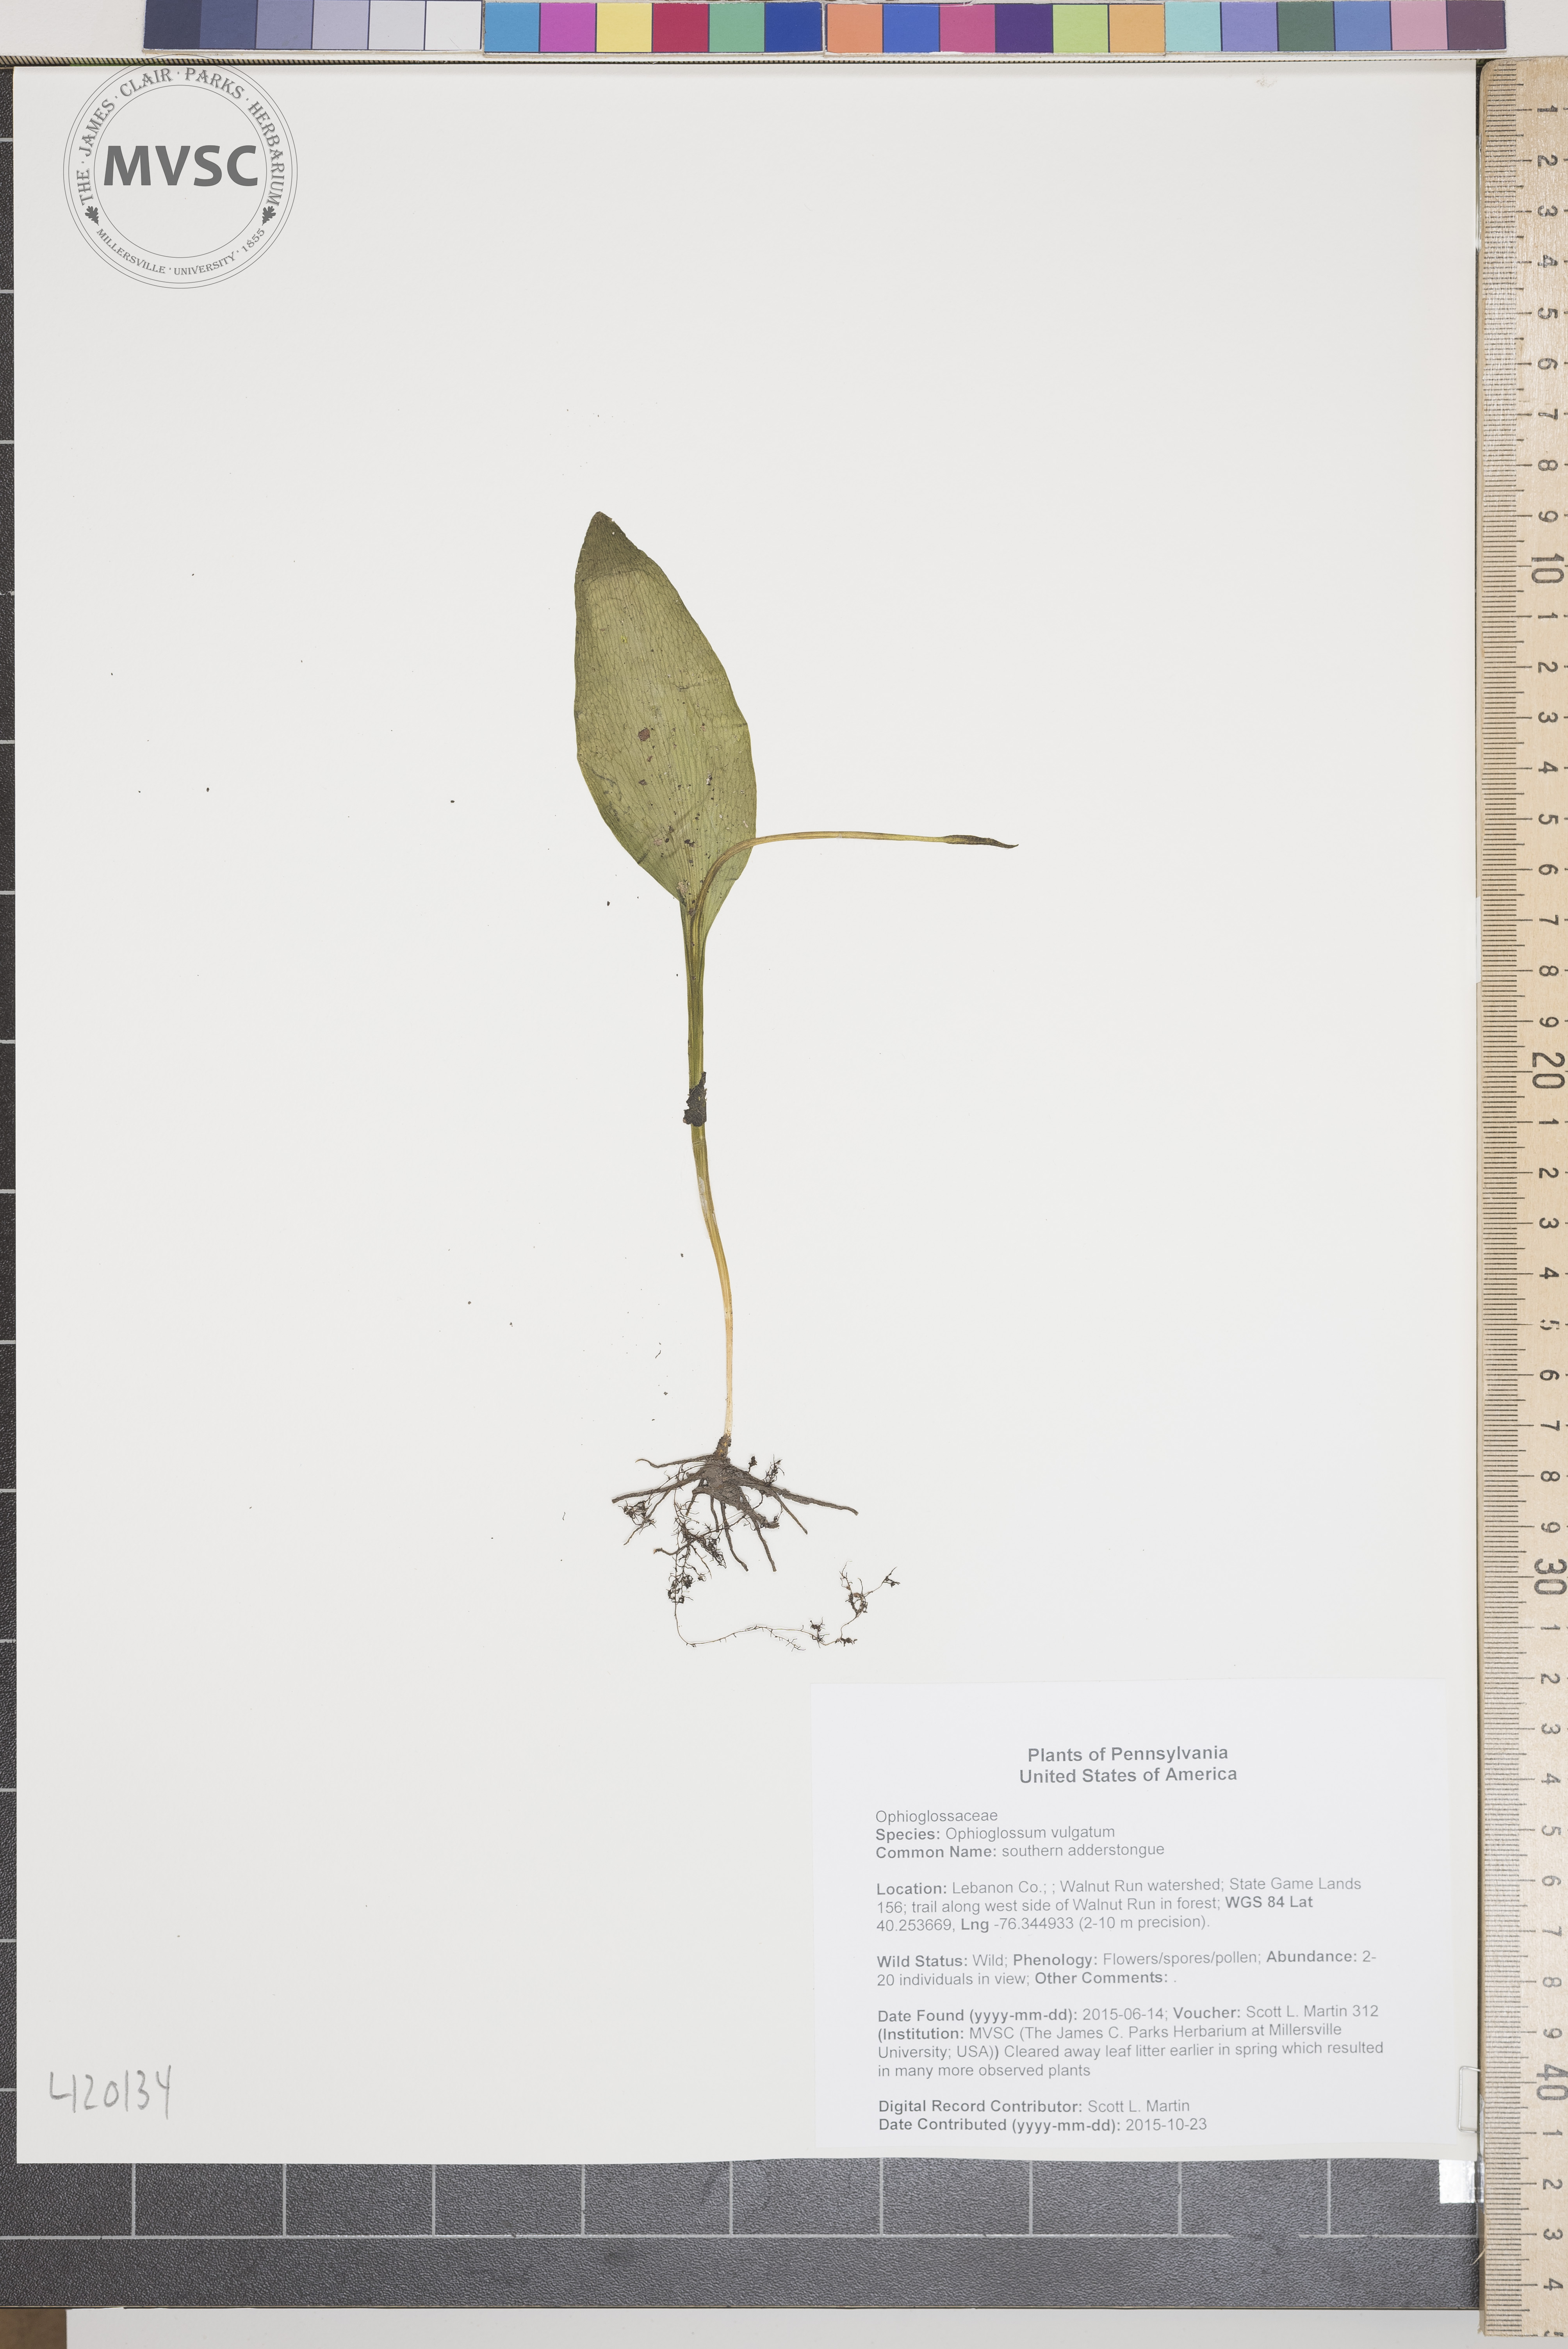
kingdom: Plantae
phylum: Tracheophyta
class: Polypodiopsida
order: Ophioglossales
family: Ophioglossaceae
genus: Ophioglossum
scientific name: Ophioglossum vulgatum
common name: southern adderstongue
